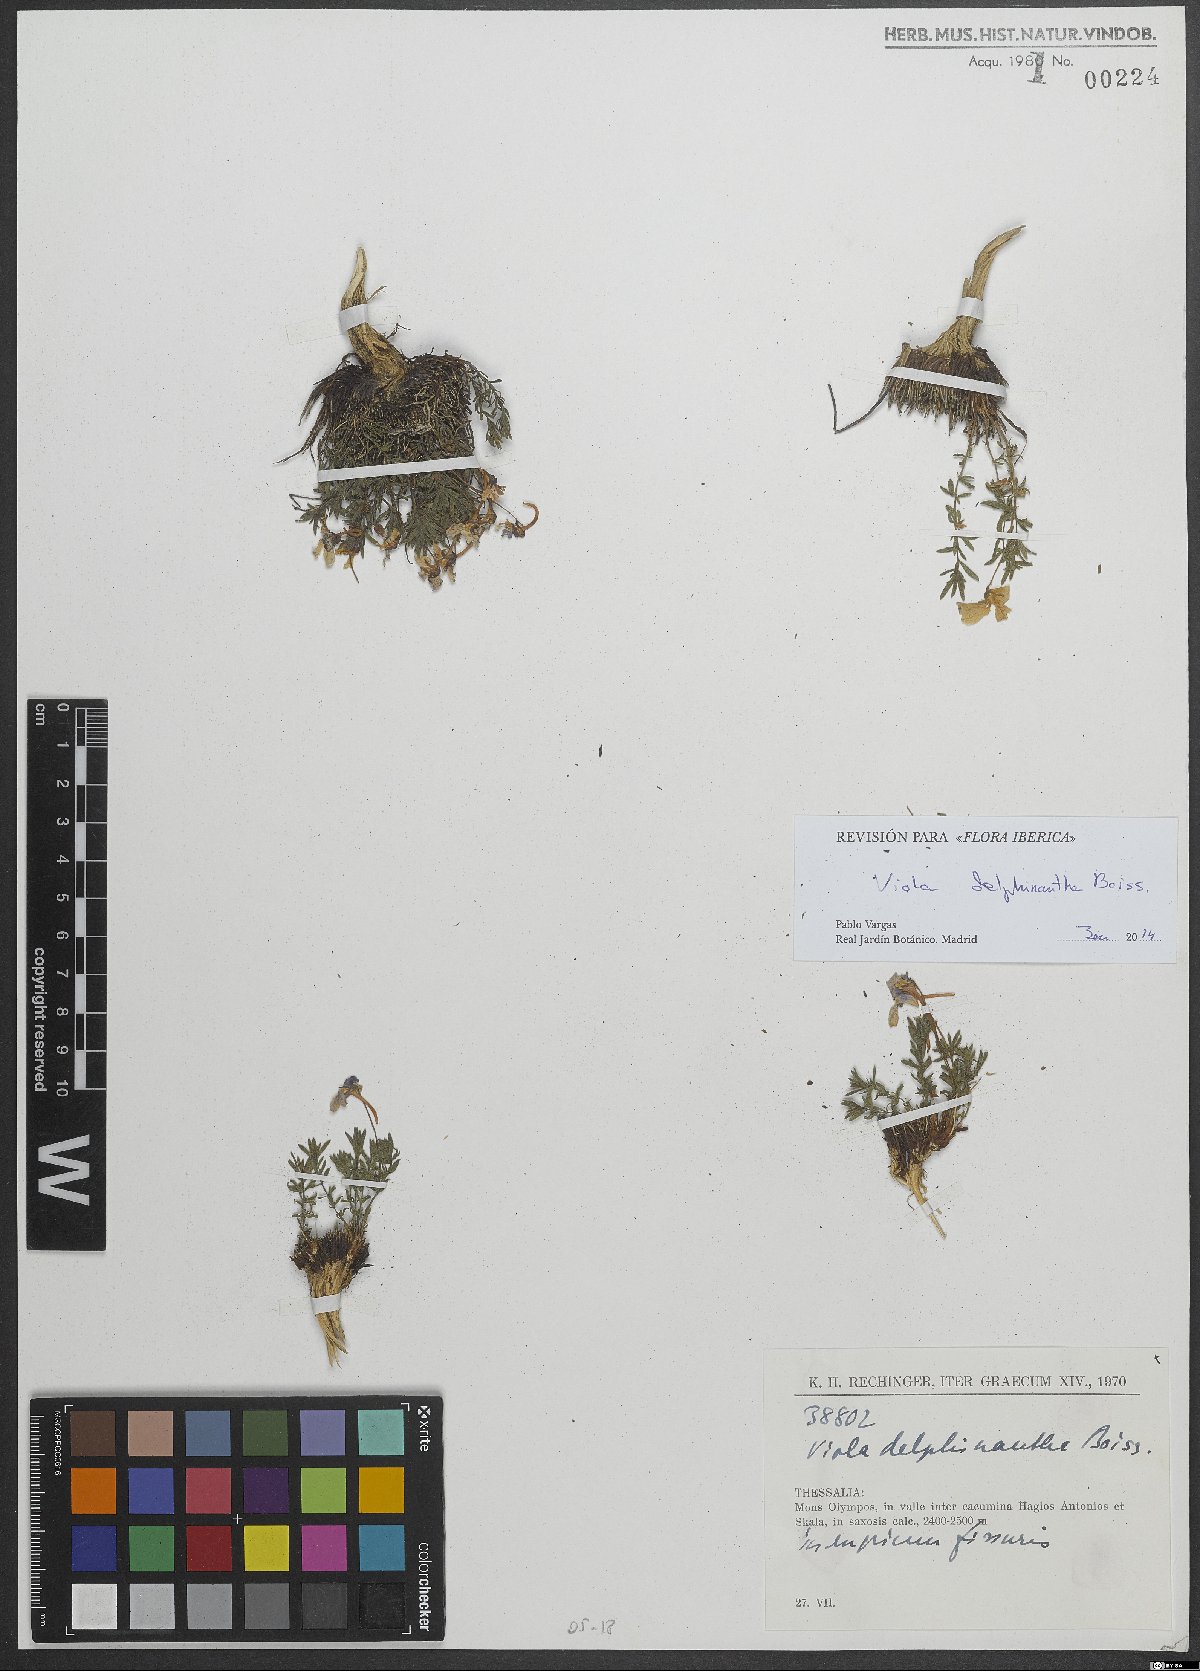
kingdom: Plantae
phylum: Tracheophyta
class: Magnoliopsida
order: Malpighiales
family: Violaceae
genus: Viola
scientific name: Viola delphinantha
